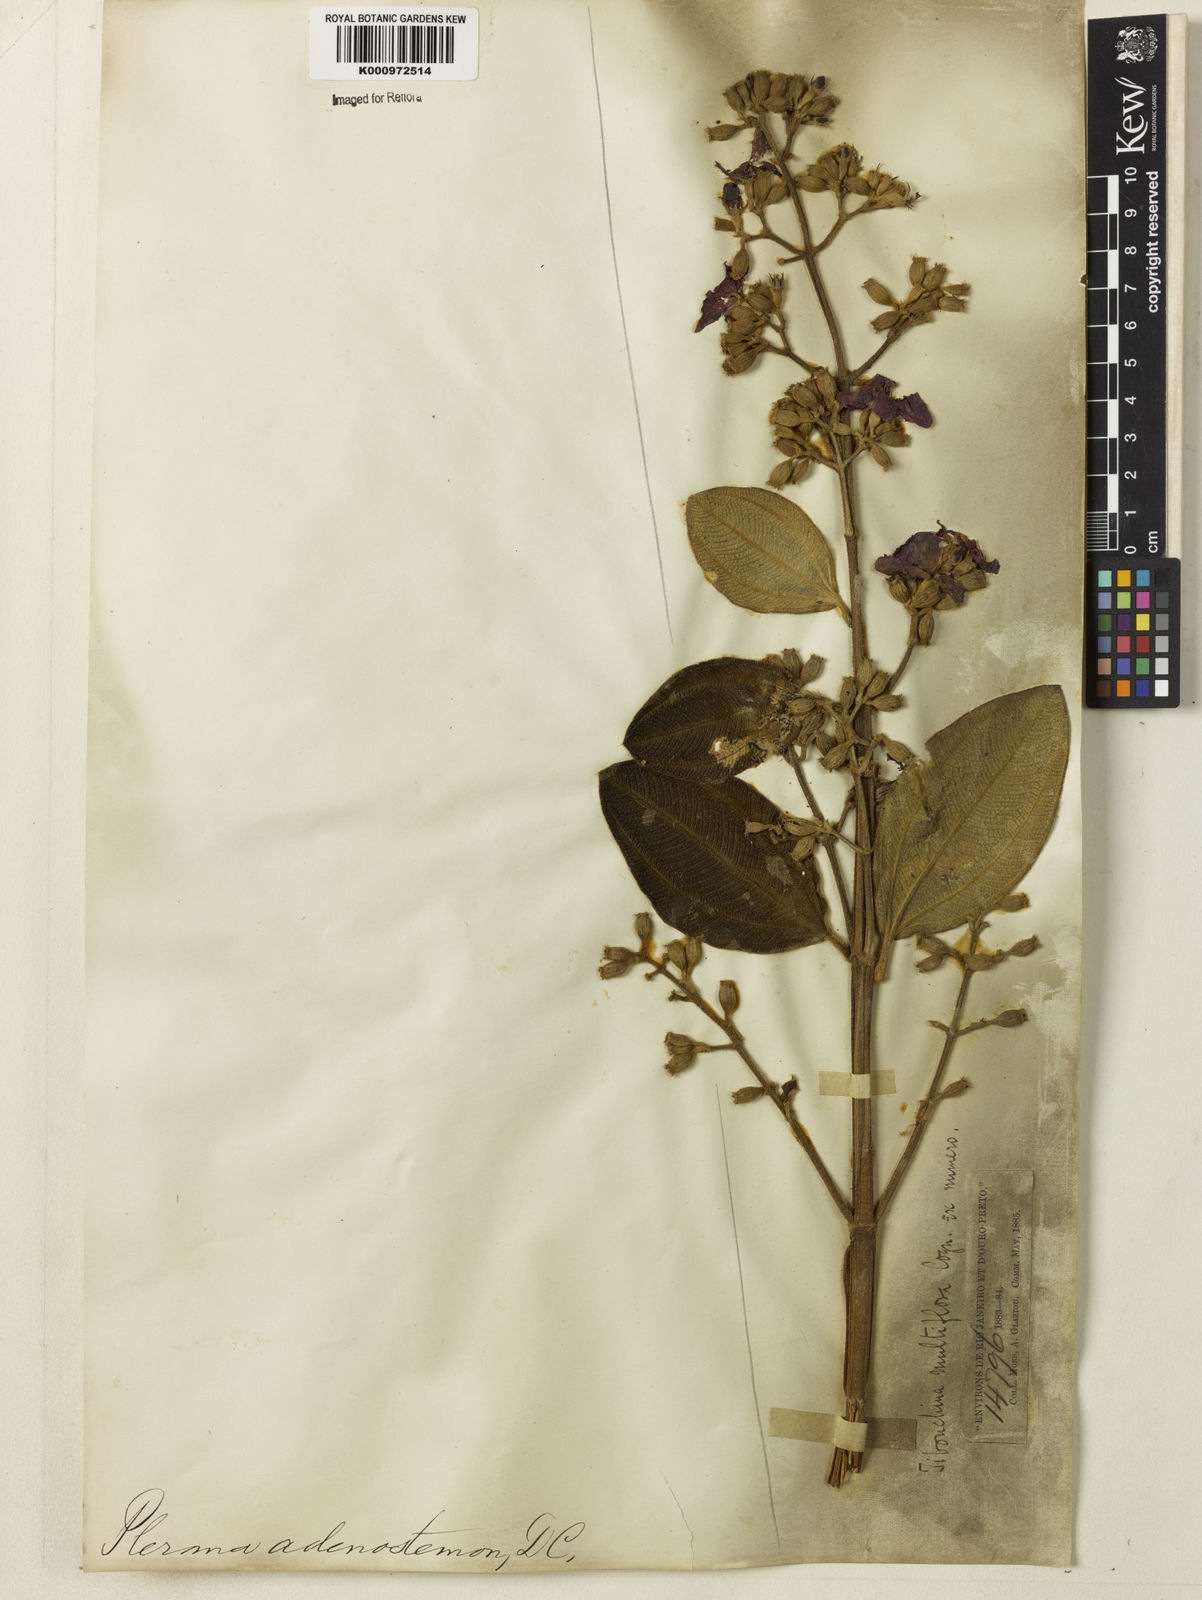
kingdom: Plantae
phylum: Tracheophyta
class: Magnoliopsida
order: Myrtales
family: Melastomataceae
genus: Pleroma
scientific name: Pleroma heteromallum
